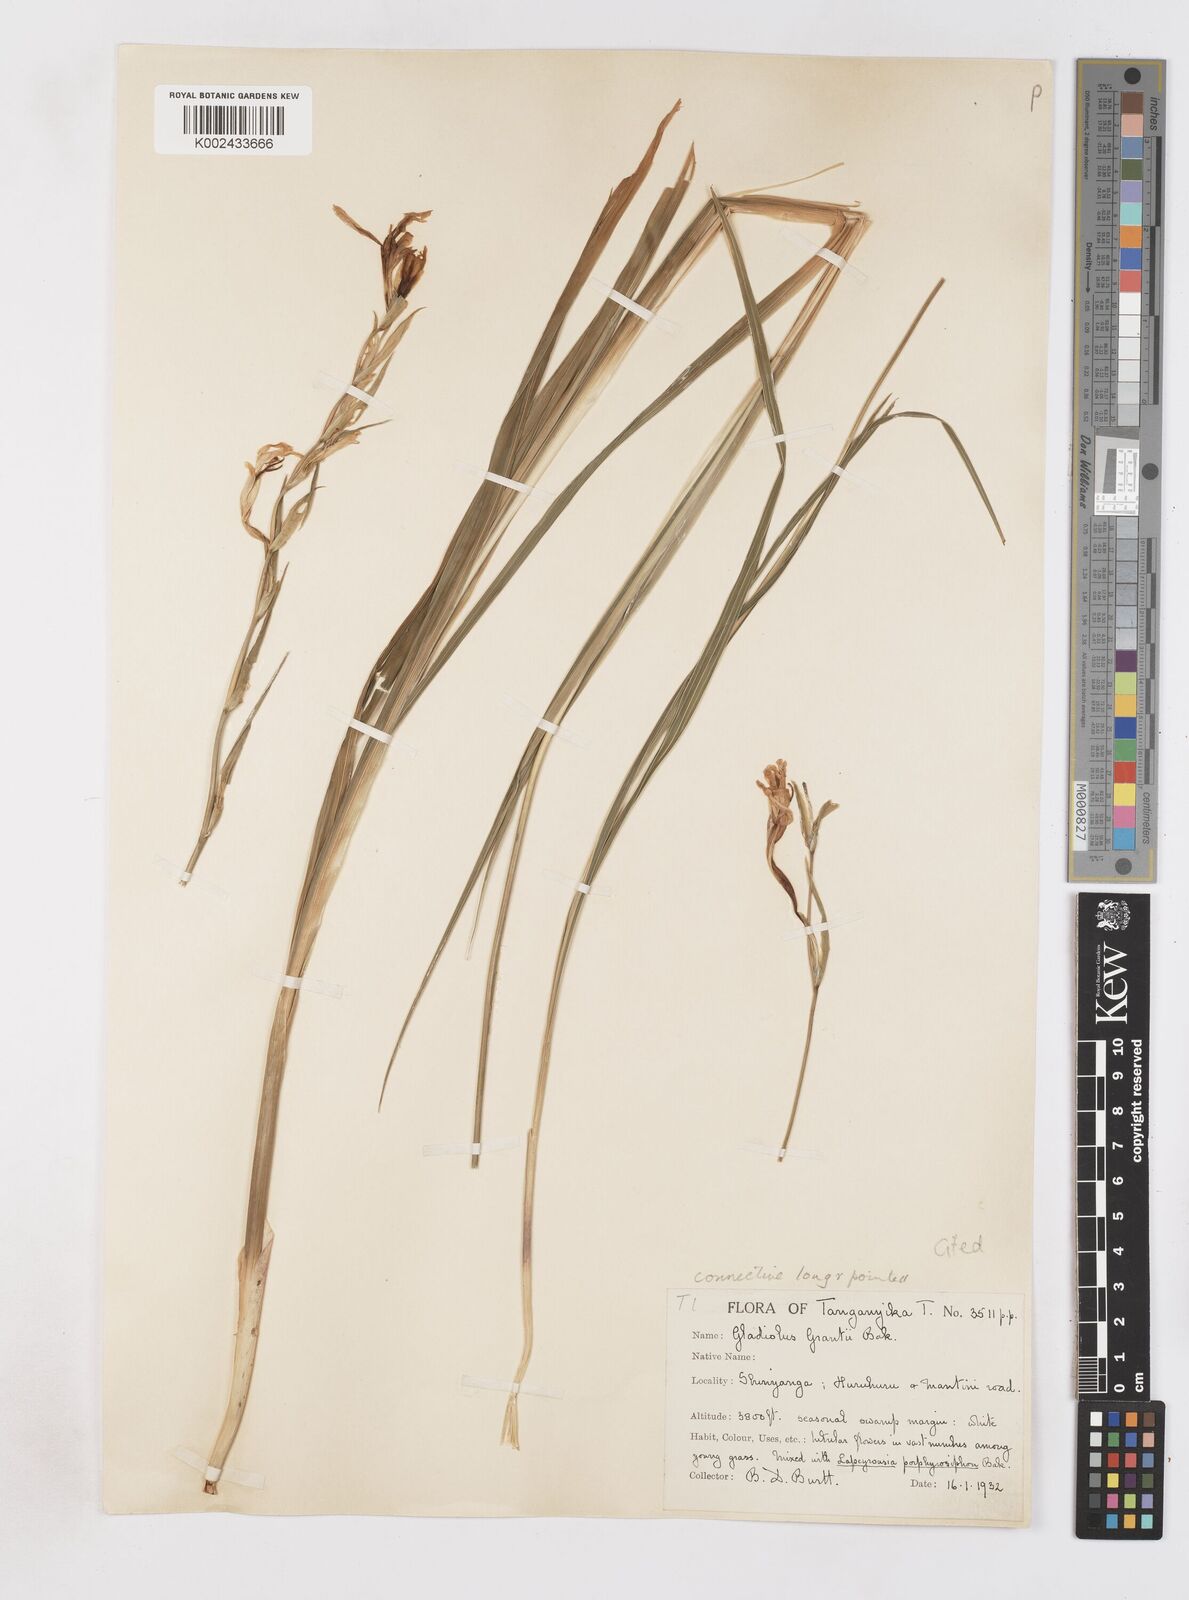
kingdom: Plantae
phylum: Tracheophyta
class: Liliopsida
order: Asparagales
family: Iridaceae
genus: Gladiolus
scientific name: Gladiolus grantii
